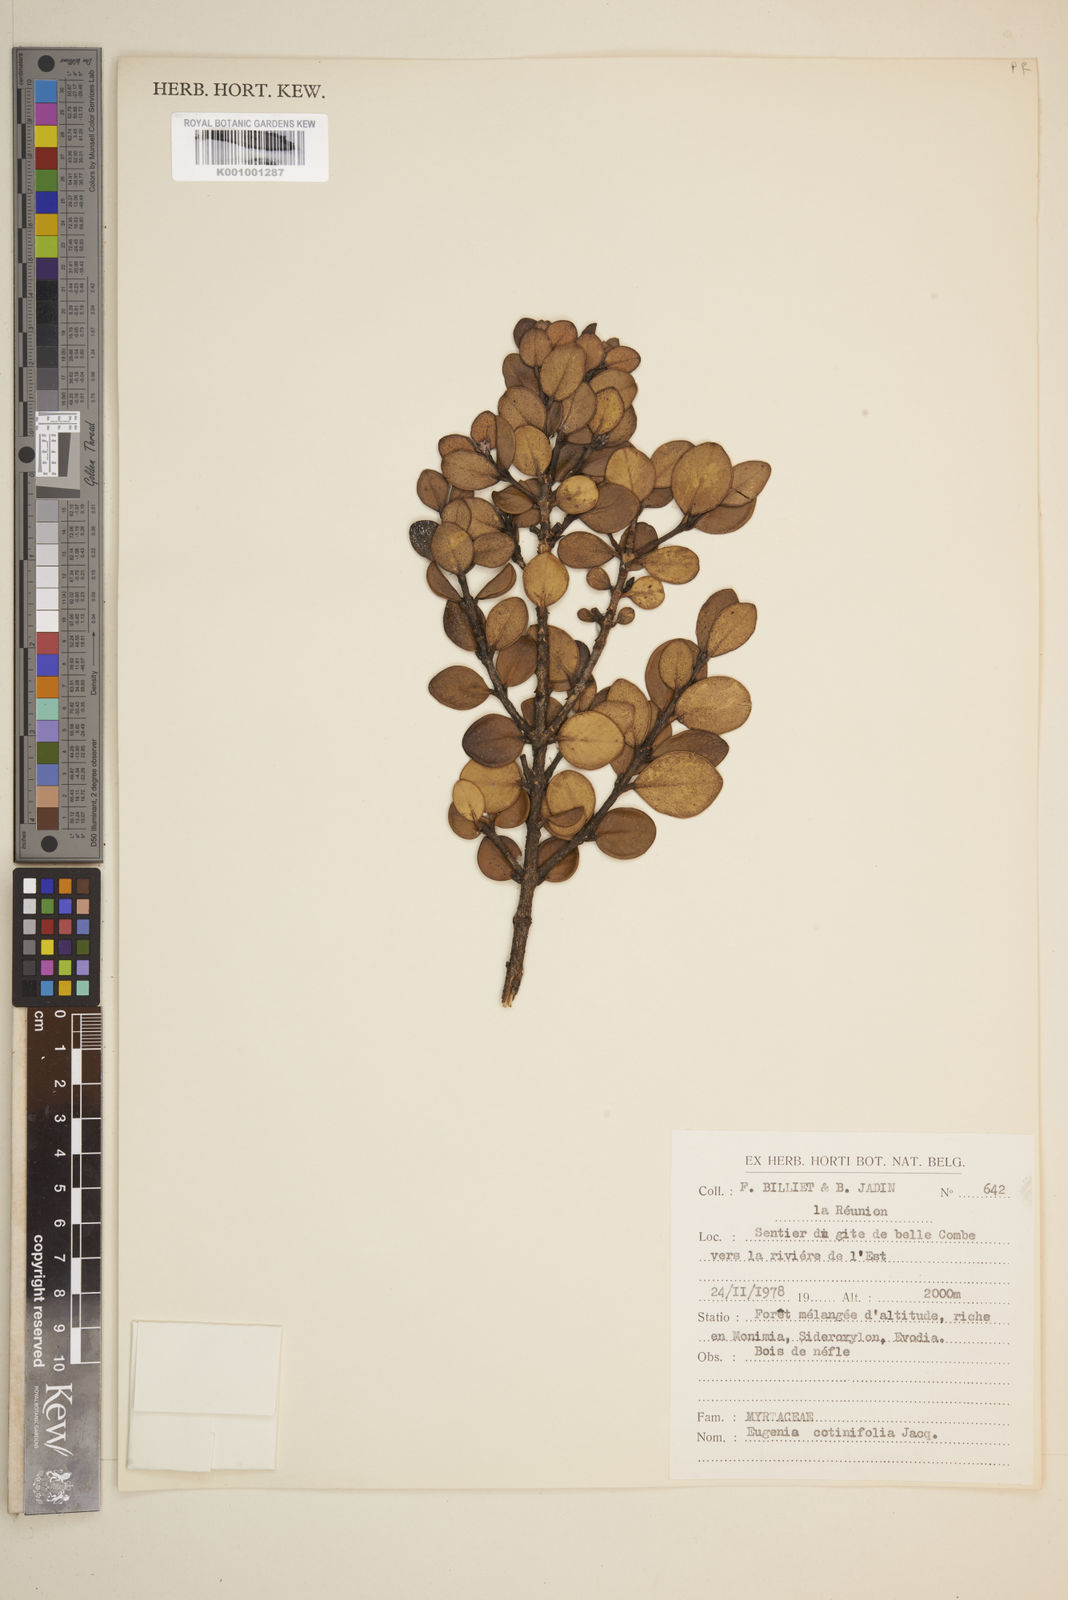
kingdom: Plantae
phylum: Tracheophyta
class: Magnoliopsida
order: Myrtales
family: Myrtaceae
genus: Myrcia
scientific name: Myrcia guianensis
